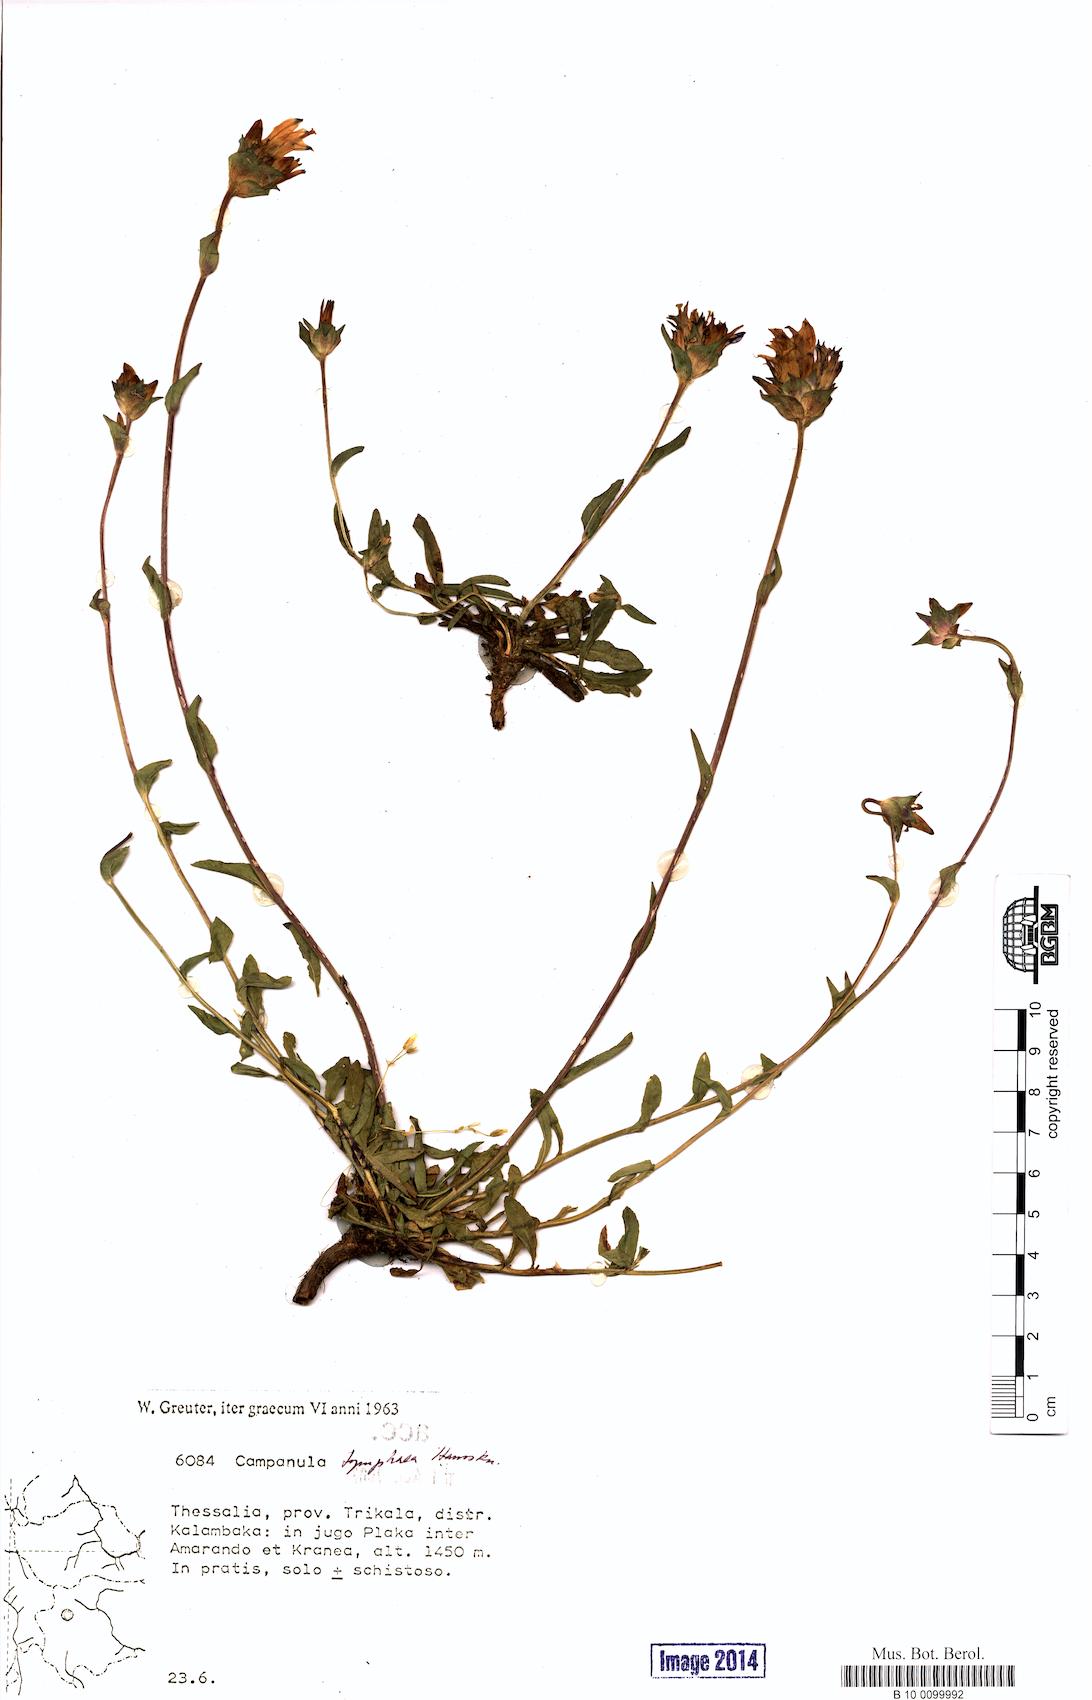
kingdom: Plantae
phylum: Tracheophyta
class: Magnoliopsida
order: Asterales
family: Campanulaceae
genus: Campanula
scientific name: Campanula tymphaea
